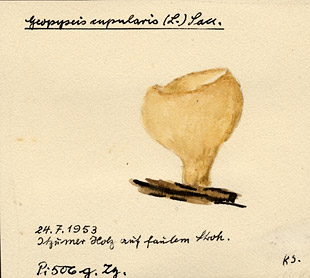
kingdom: Fungi
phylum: Ascomycota
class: Pezizomycetes
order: Pezizales
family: Pyronemataceae
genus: Tarzetta
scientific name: Tarzetta cupularis
